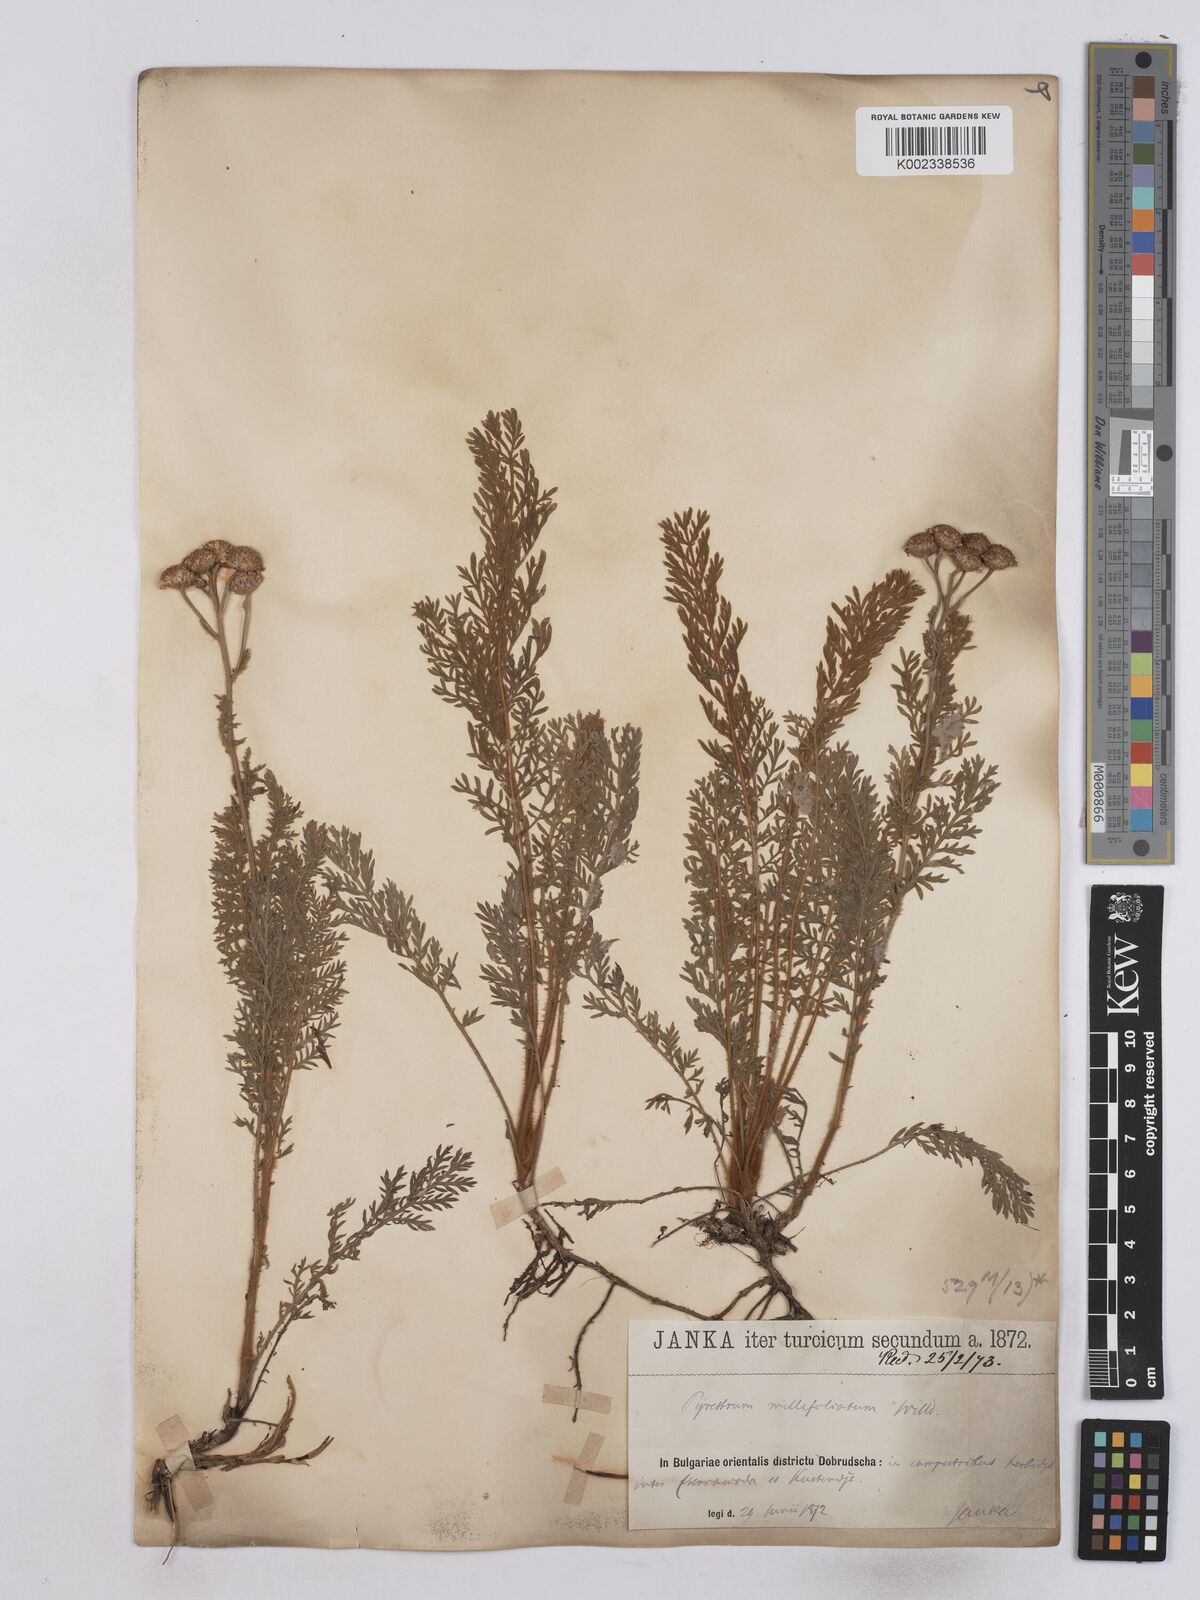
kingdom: Plantae
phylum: Tracheophyta
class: Magnoliopsida
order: Asterales
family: Asteraceae
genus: Tanacetum
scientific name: Tanacetum millefolium
